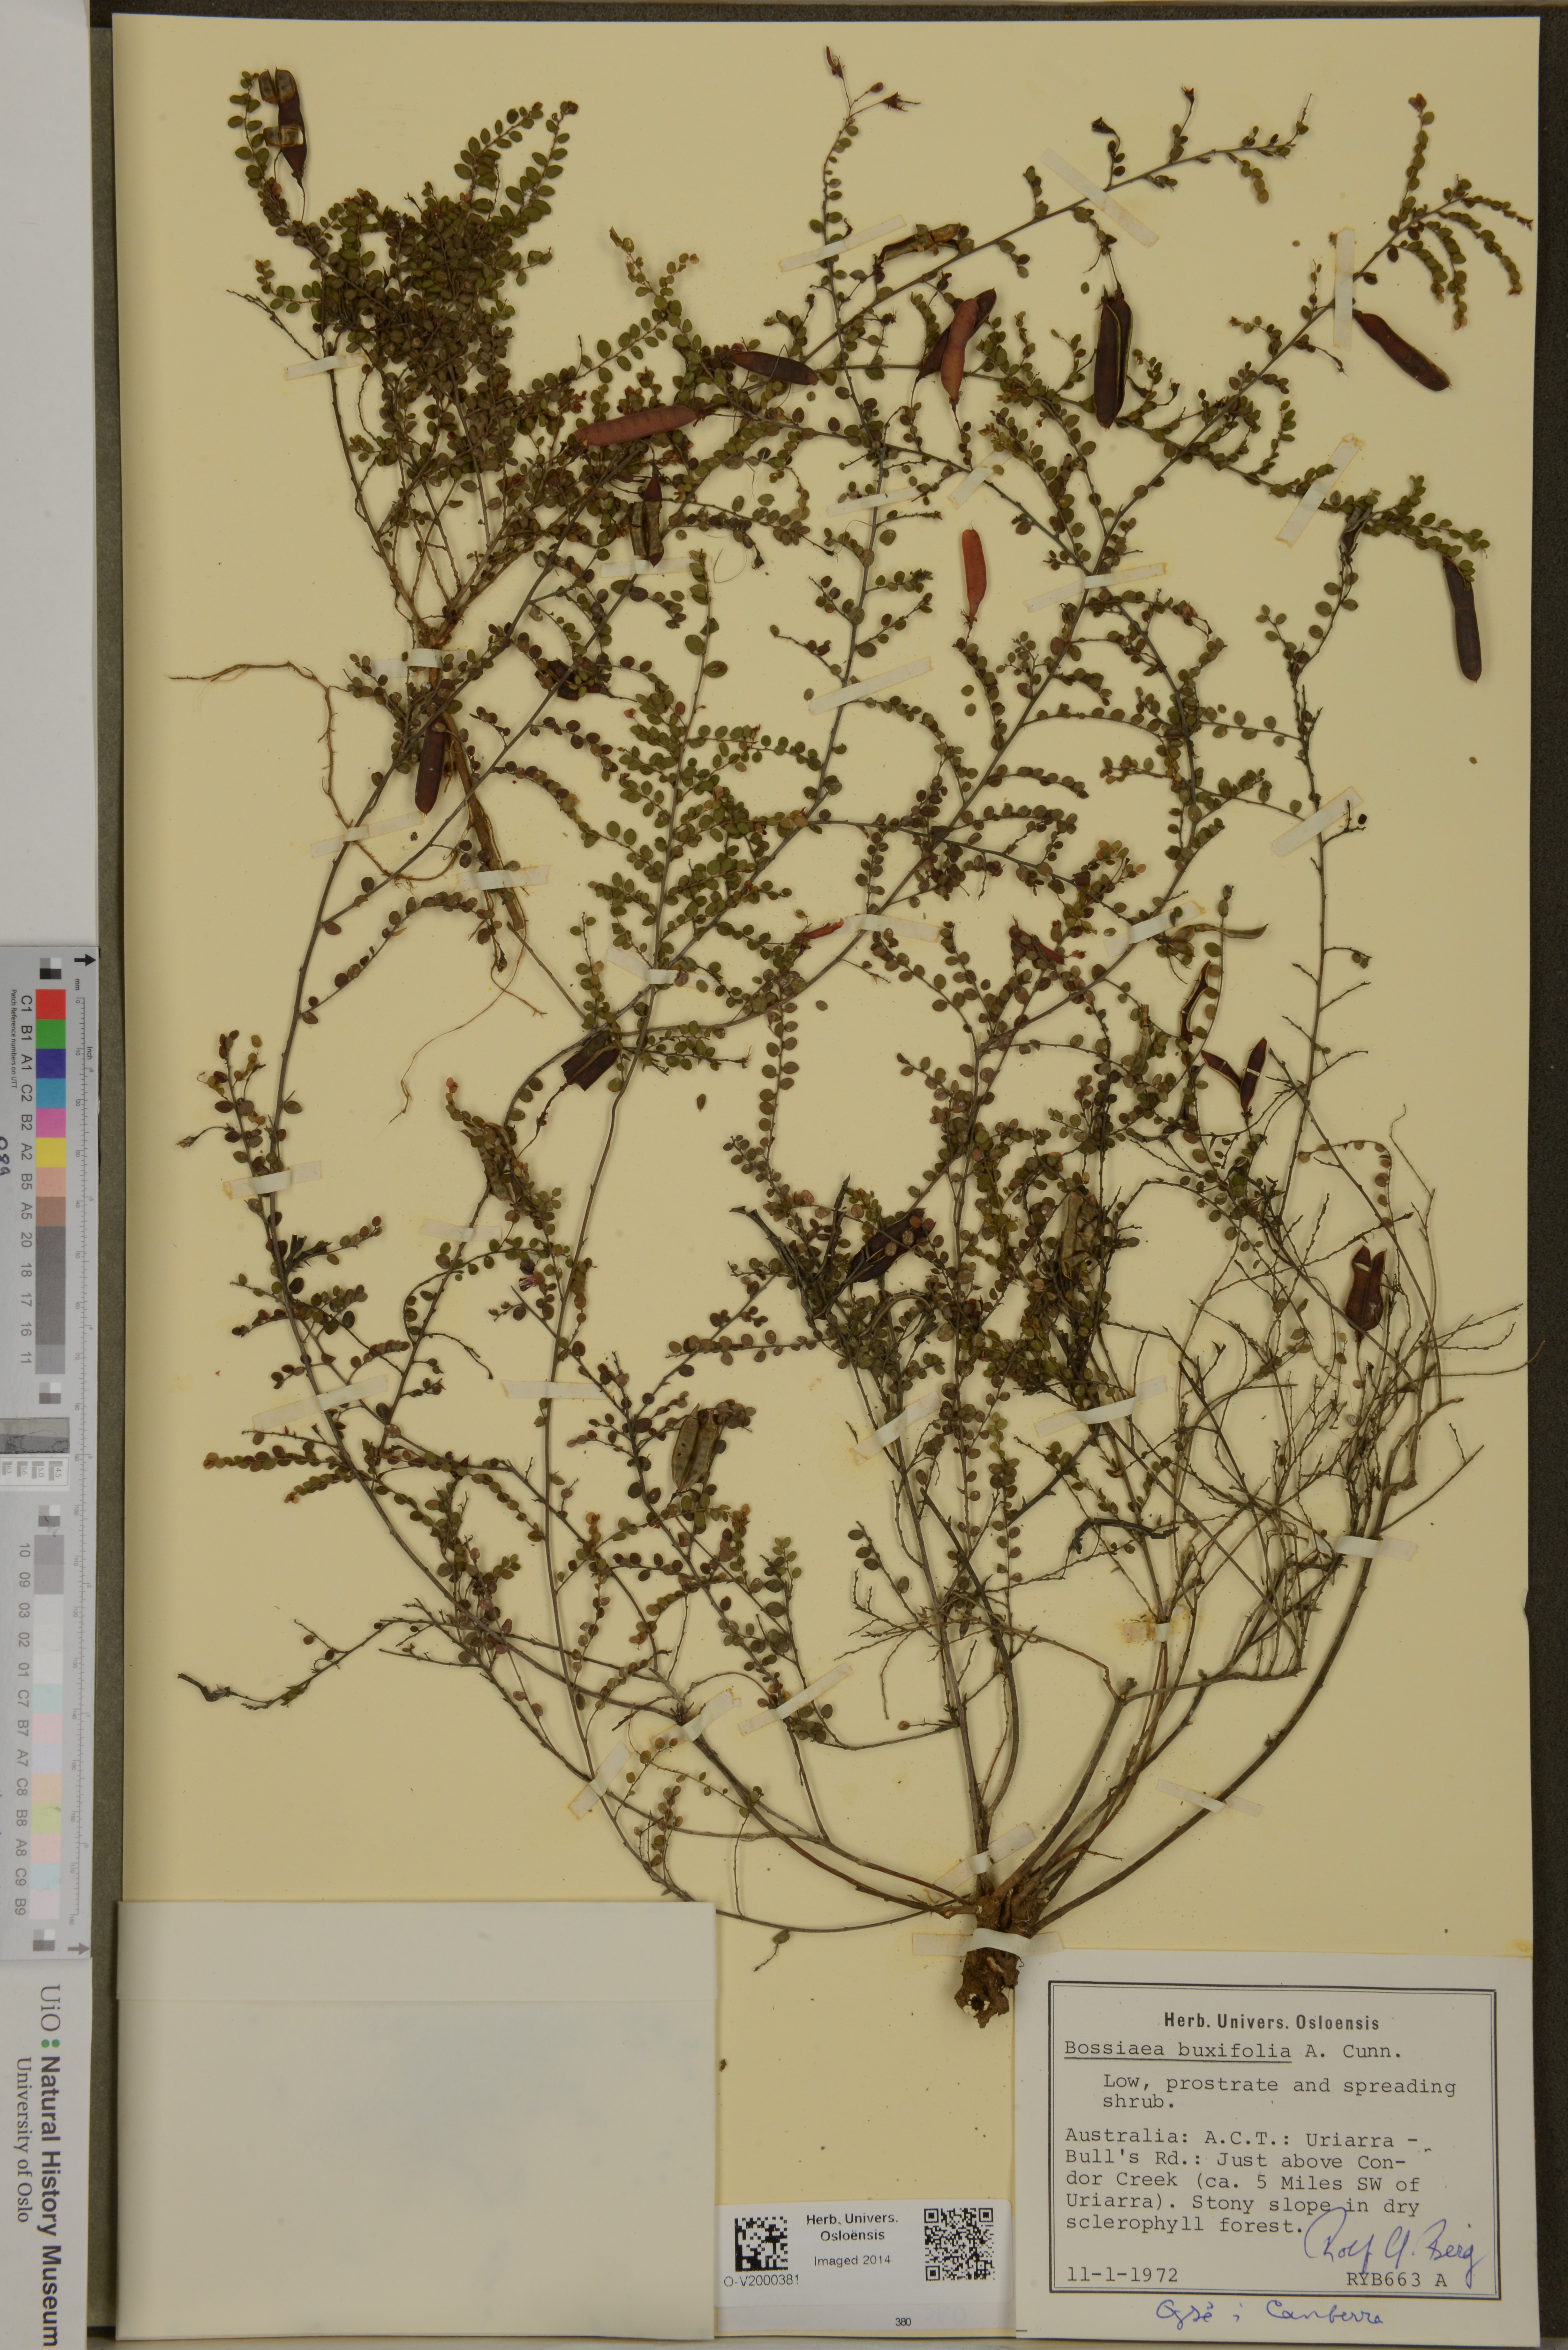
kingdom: Plantae
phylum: Tracheophyta
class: Magnoliopsida
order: Fabales
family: Fabaceae
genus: Bossiaea
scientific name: Bossiaea buxifolia
